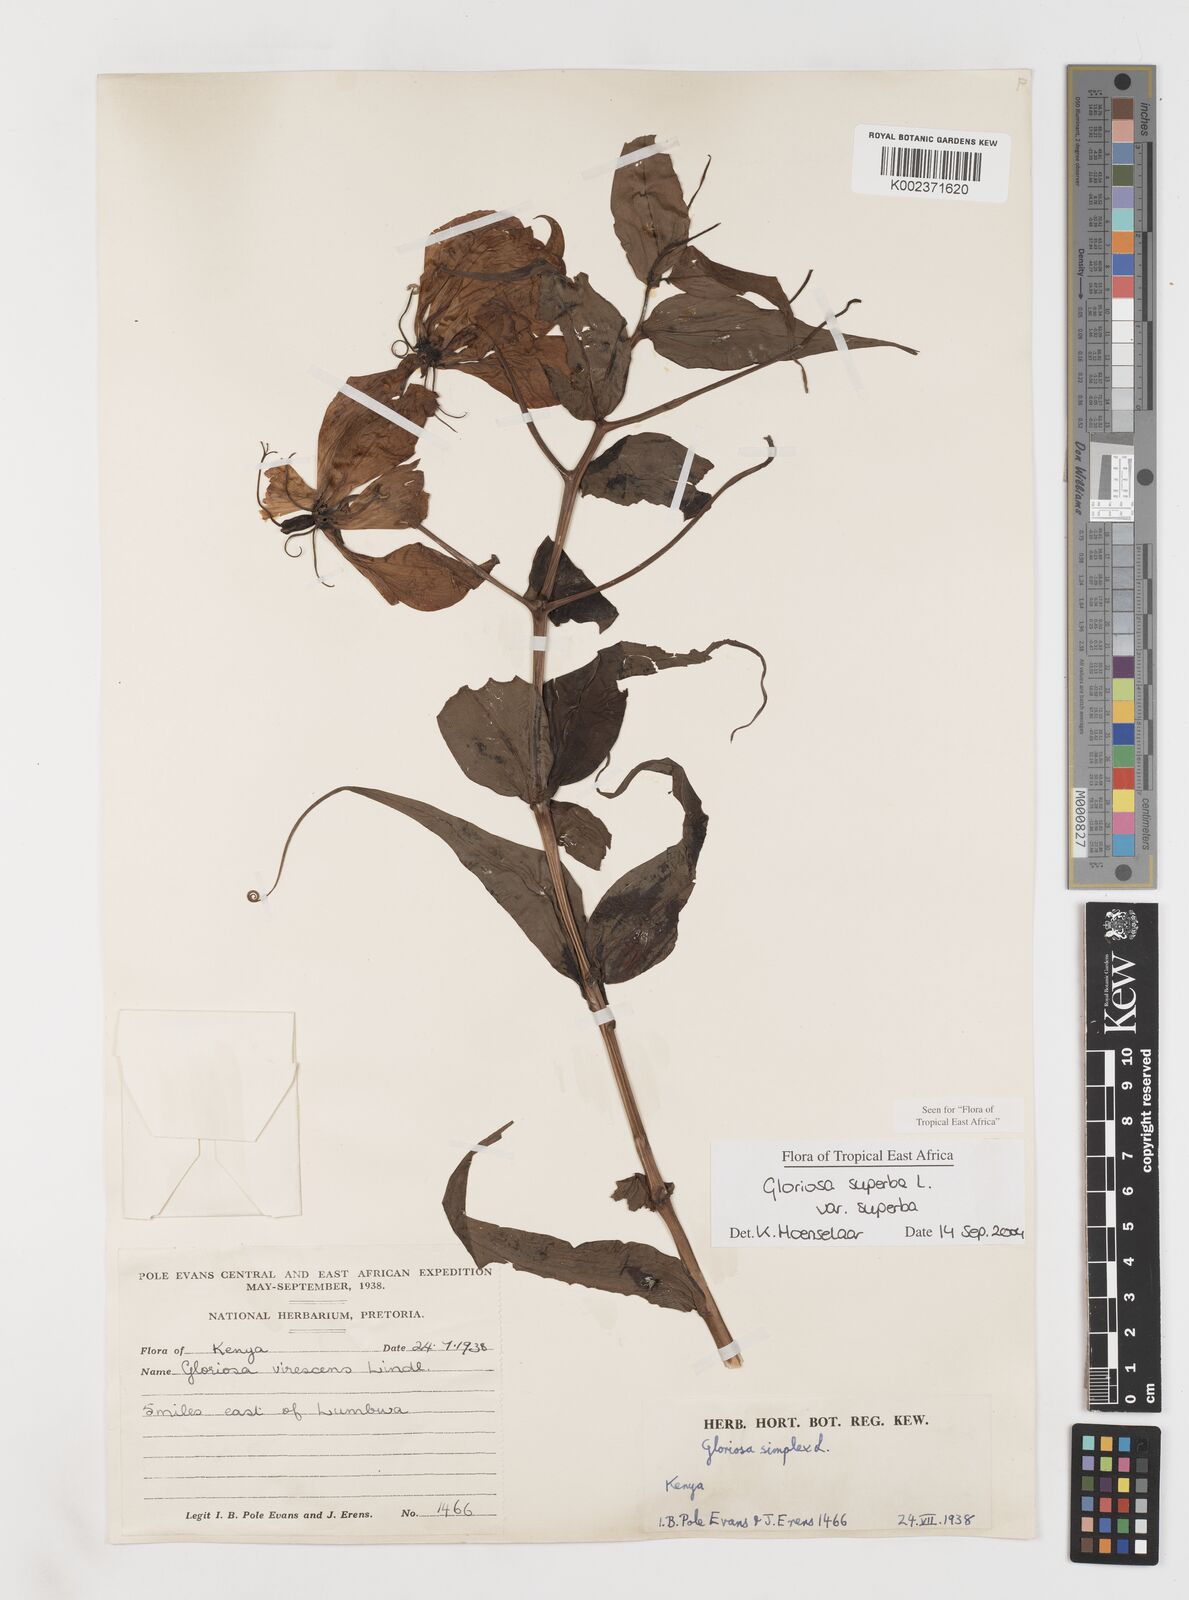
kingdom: Plantae
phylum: Tracheophyta
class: Liliopsida
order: Liliales
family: Colchicaceae
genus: Gloriosa
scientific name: Gloriosa simplex
